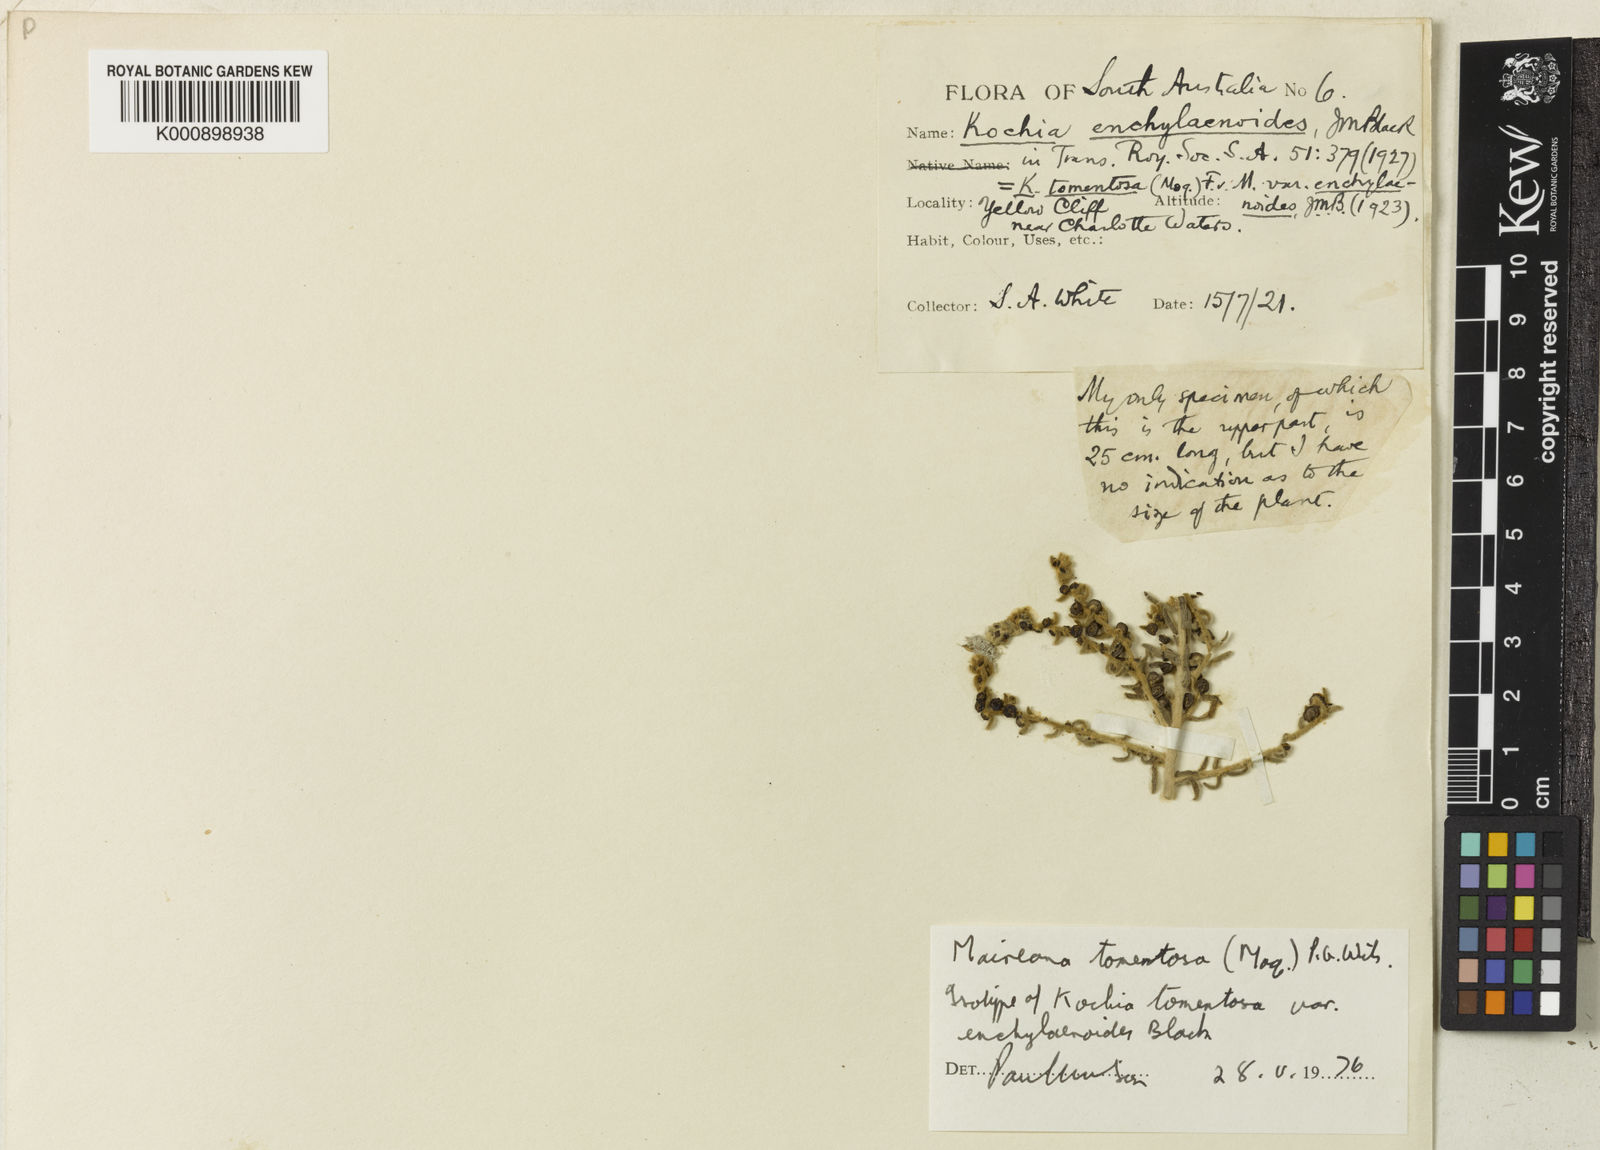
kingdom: Plantae
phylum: Tracheophyta
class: Magnoliopsida
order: Caryophyllales
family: Amaranthaceae
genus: Maireana
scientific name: Maireana
